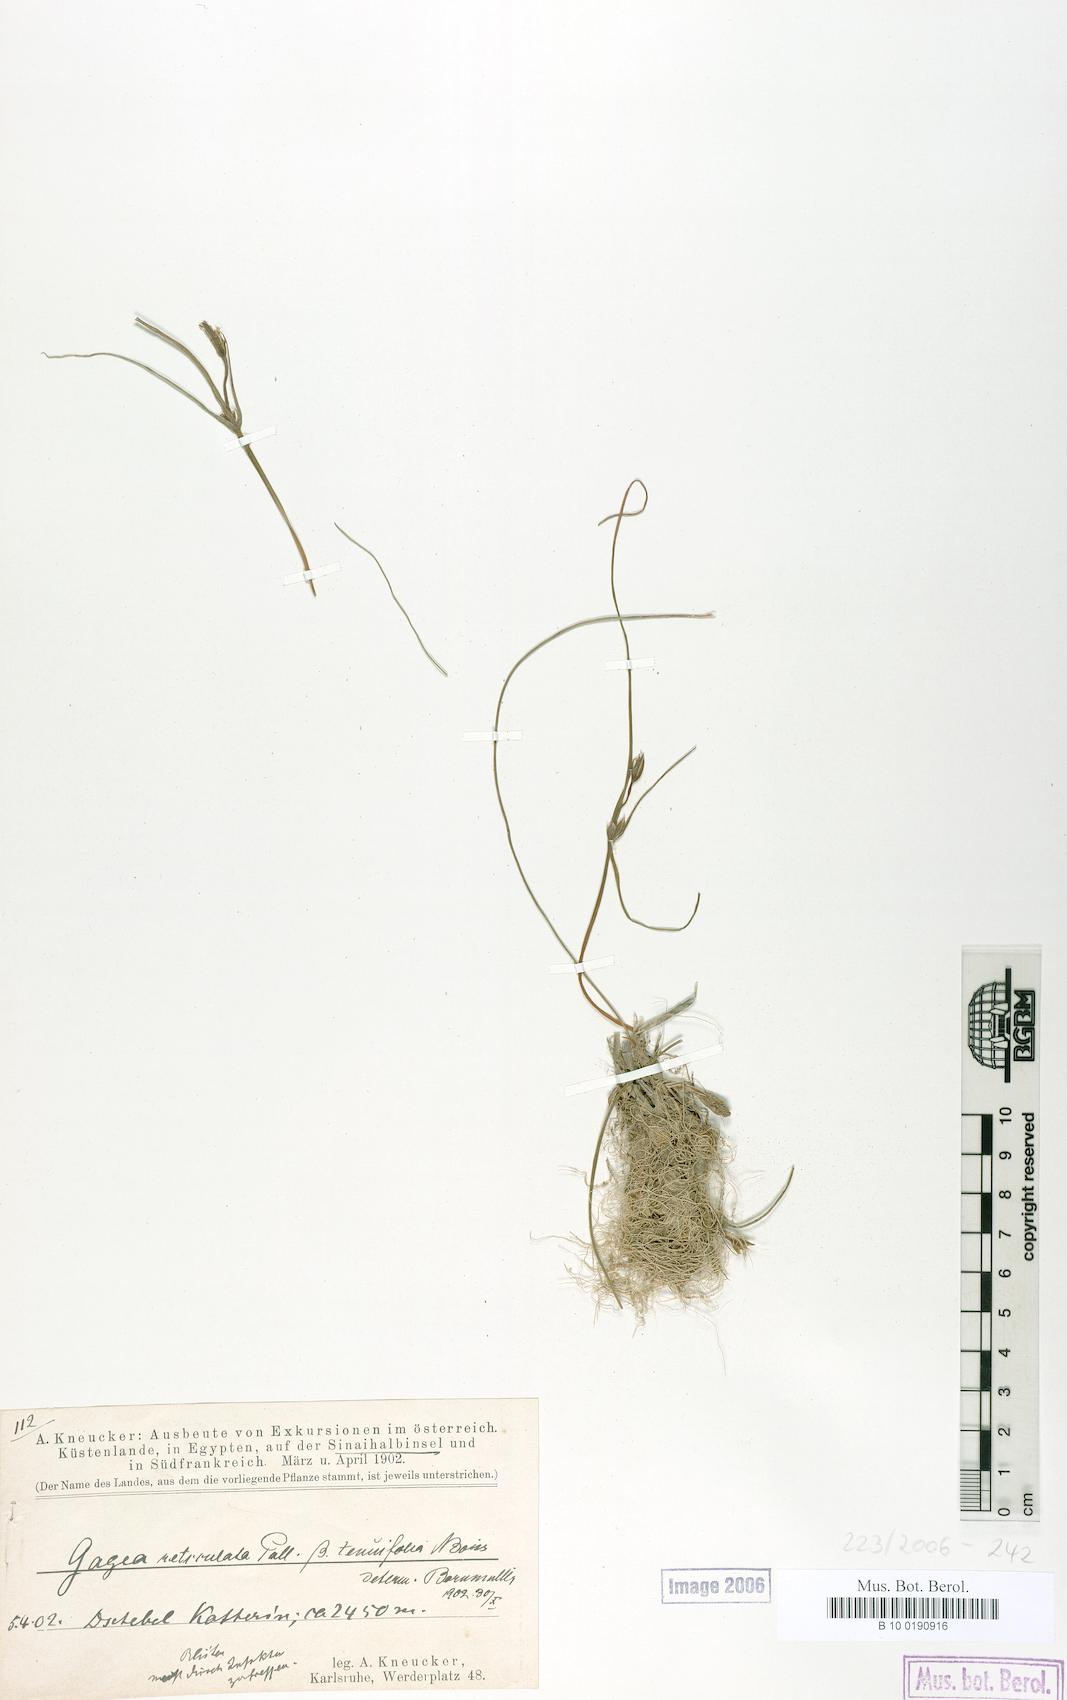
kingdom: Plantae
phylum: Tracheophyta
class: Liliopsida
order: Liliales
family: Liliaceae
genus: Gagea
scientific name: Gagea reticulata
